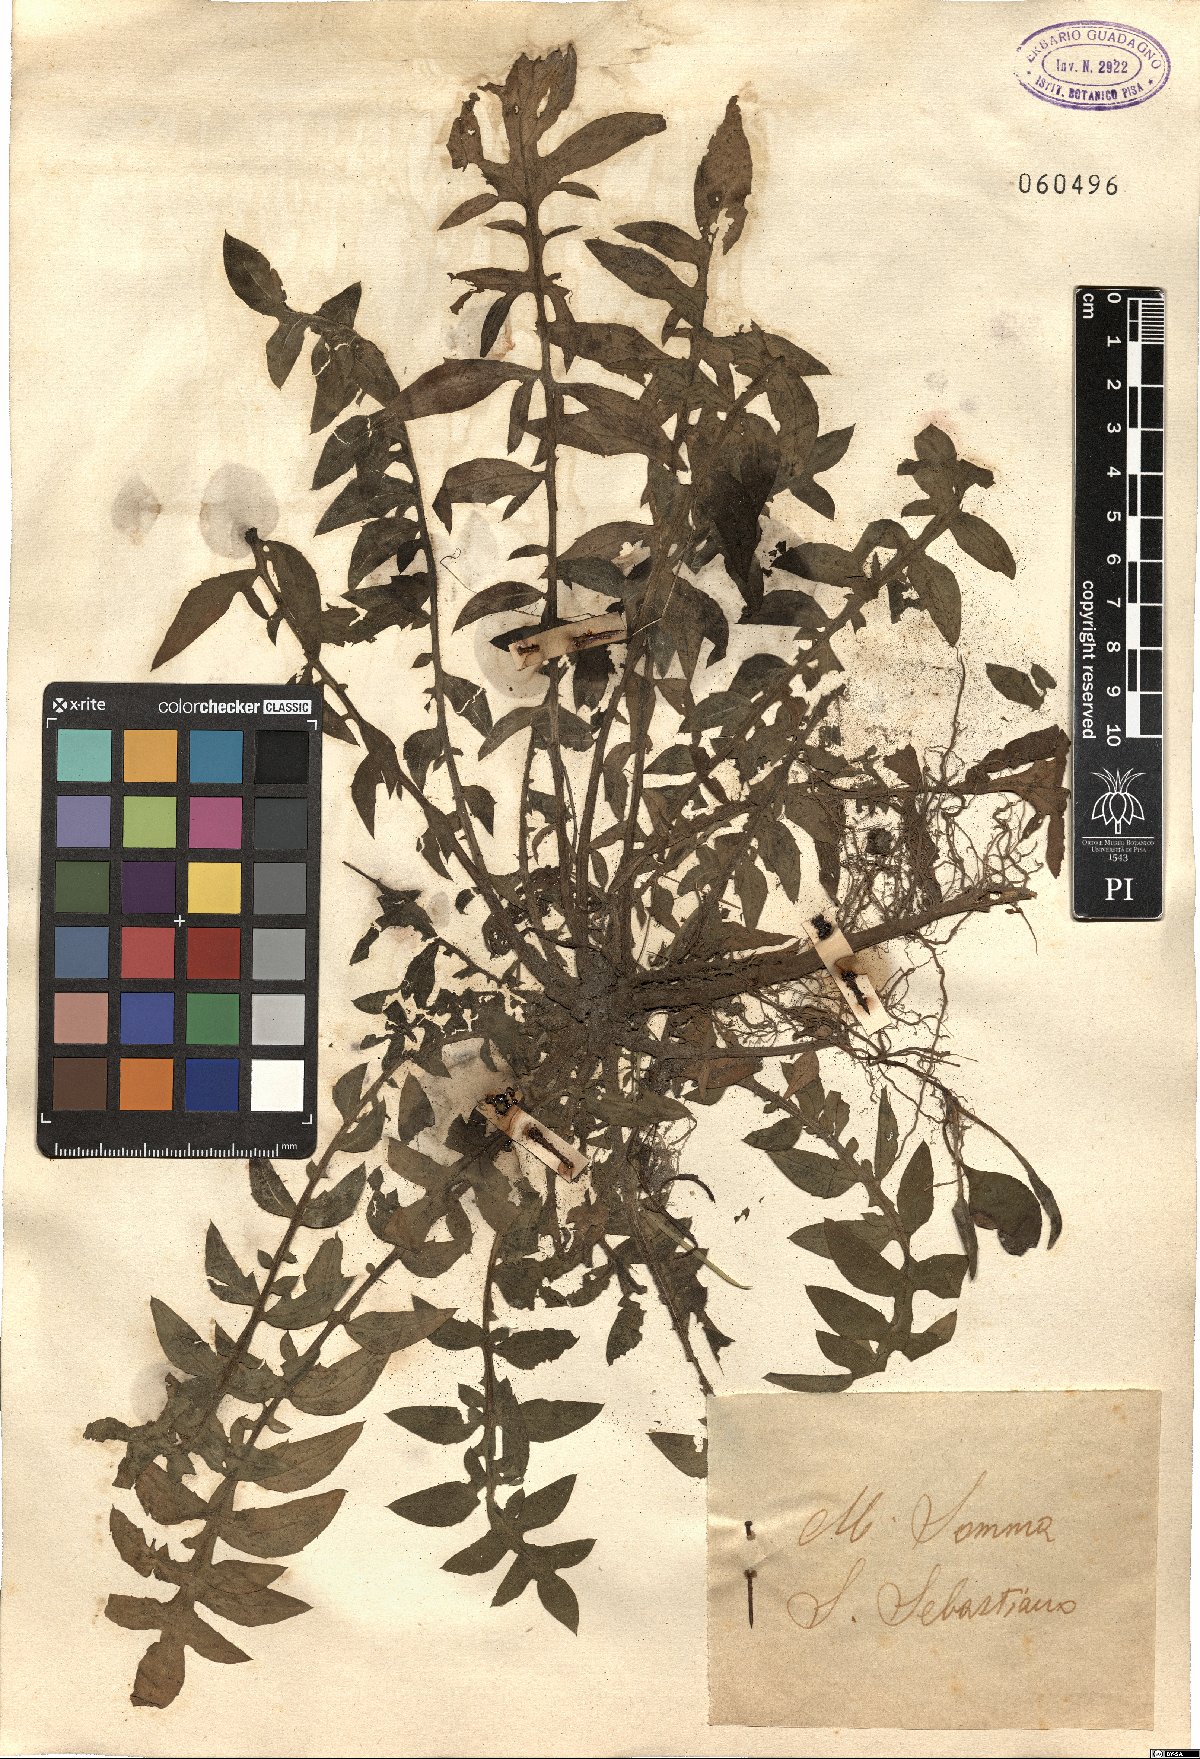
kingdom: Plantae
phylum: Tracheophyta
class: Magnoliopsida
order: Asterales
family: Asteraceae
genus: Centaurea
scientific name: Centaurea
